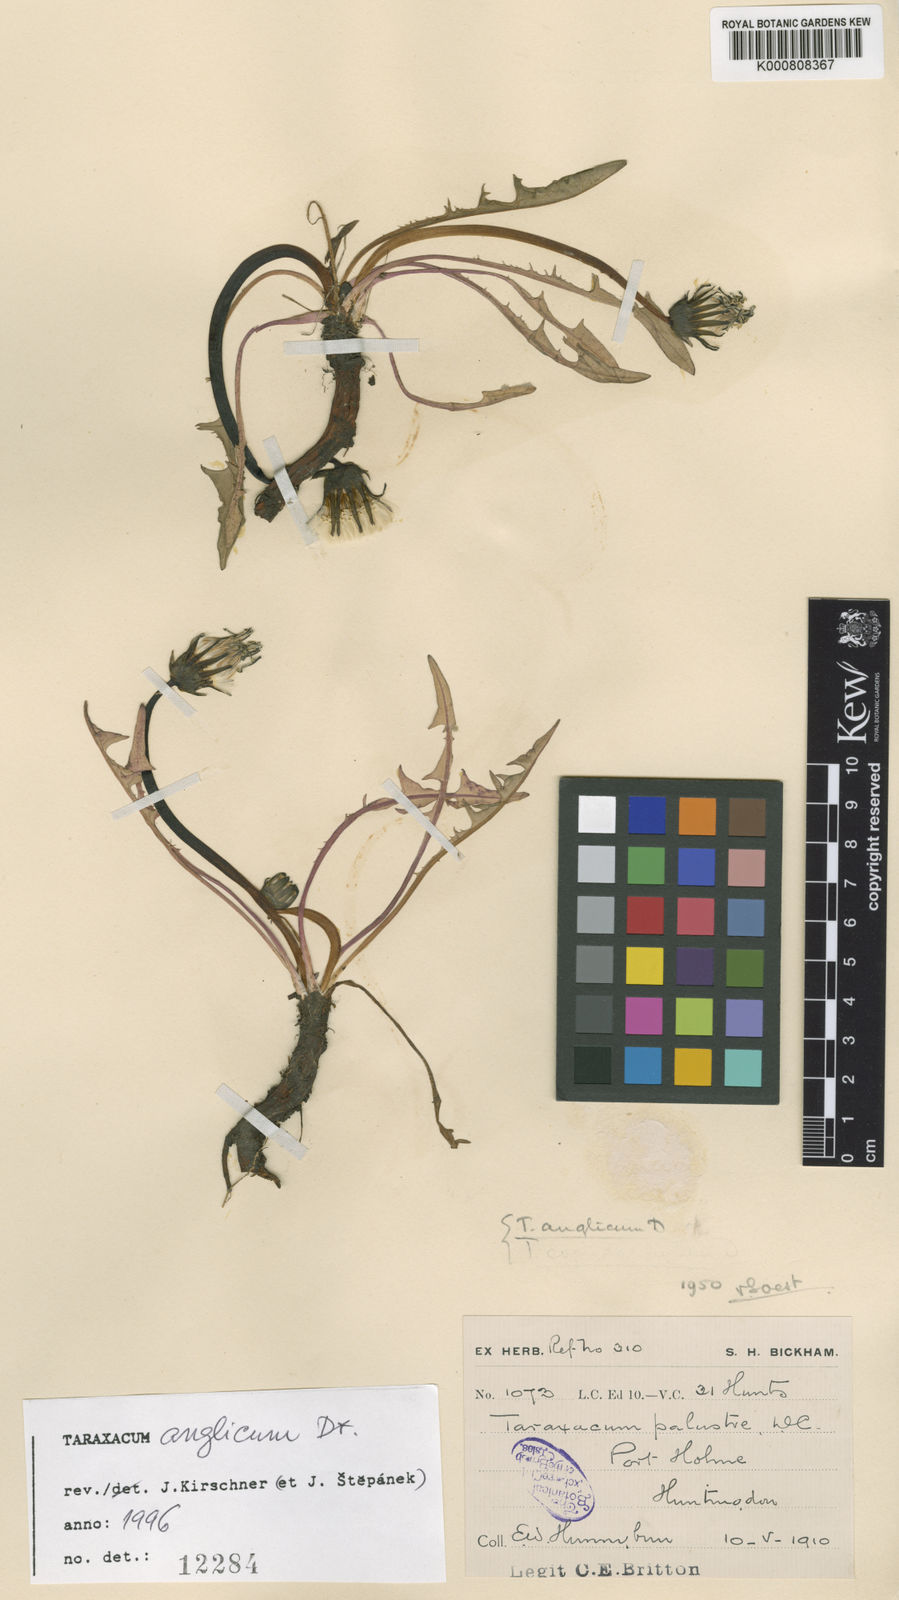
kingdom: Plantae
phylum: Tracheophyta
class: Magnoliopsida
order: Asterales
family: Asteraceae
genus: Taraxacum
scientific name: Taraxacum anglicum
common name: English dandelion
